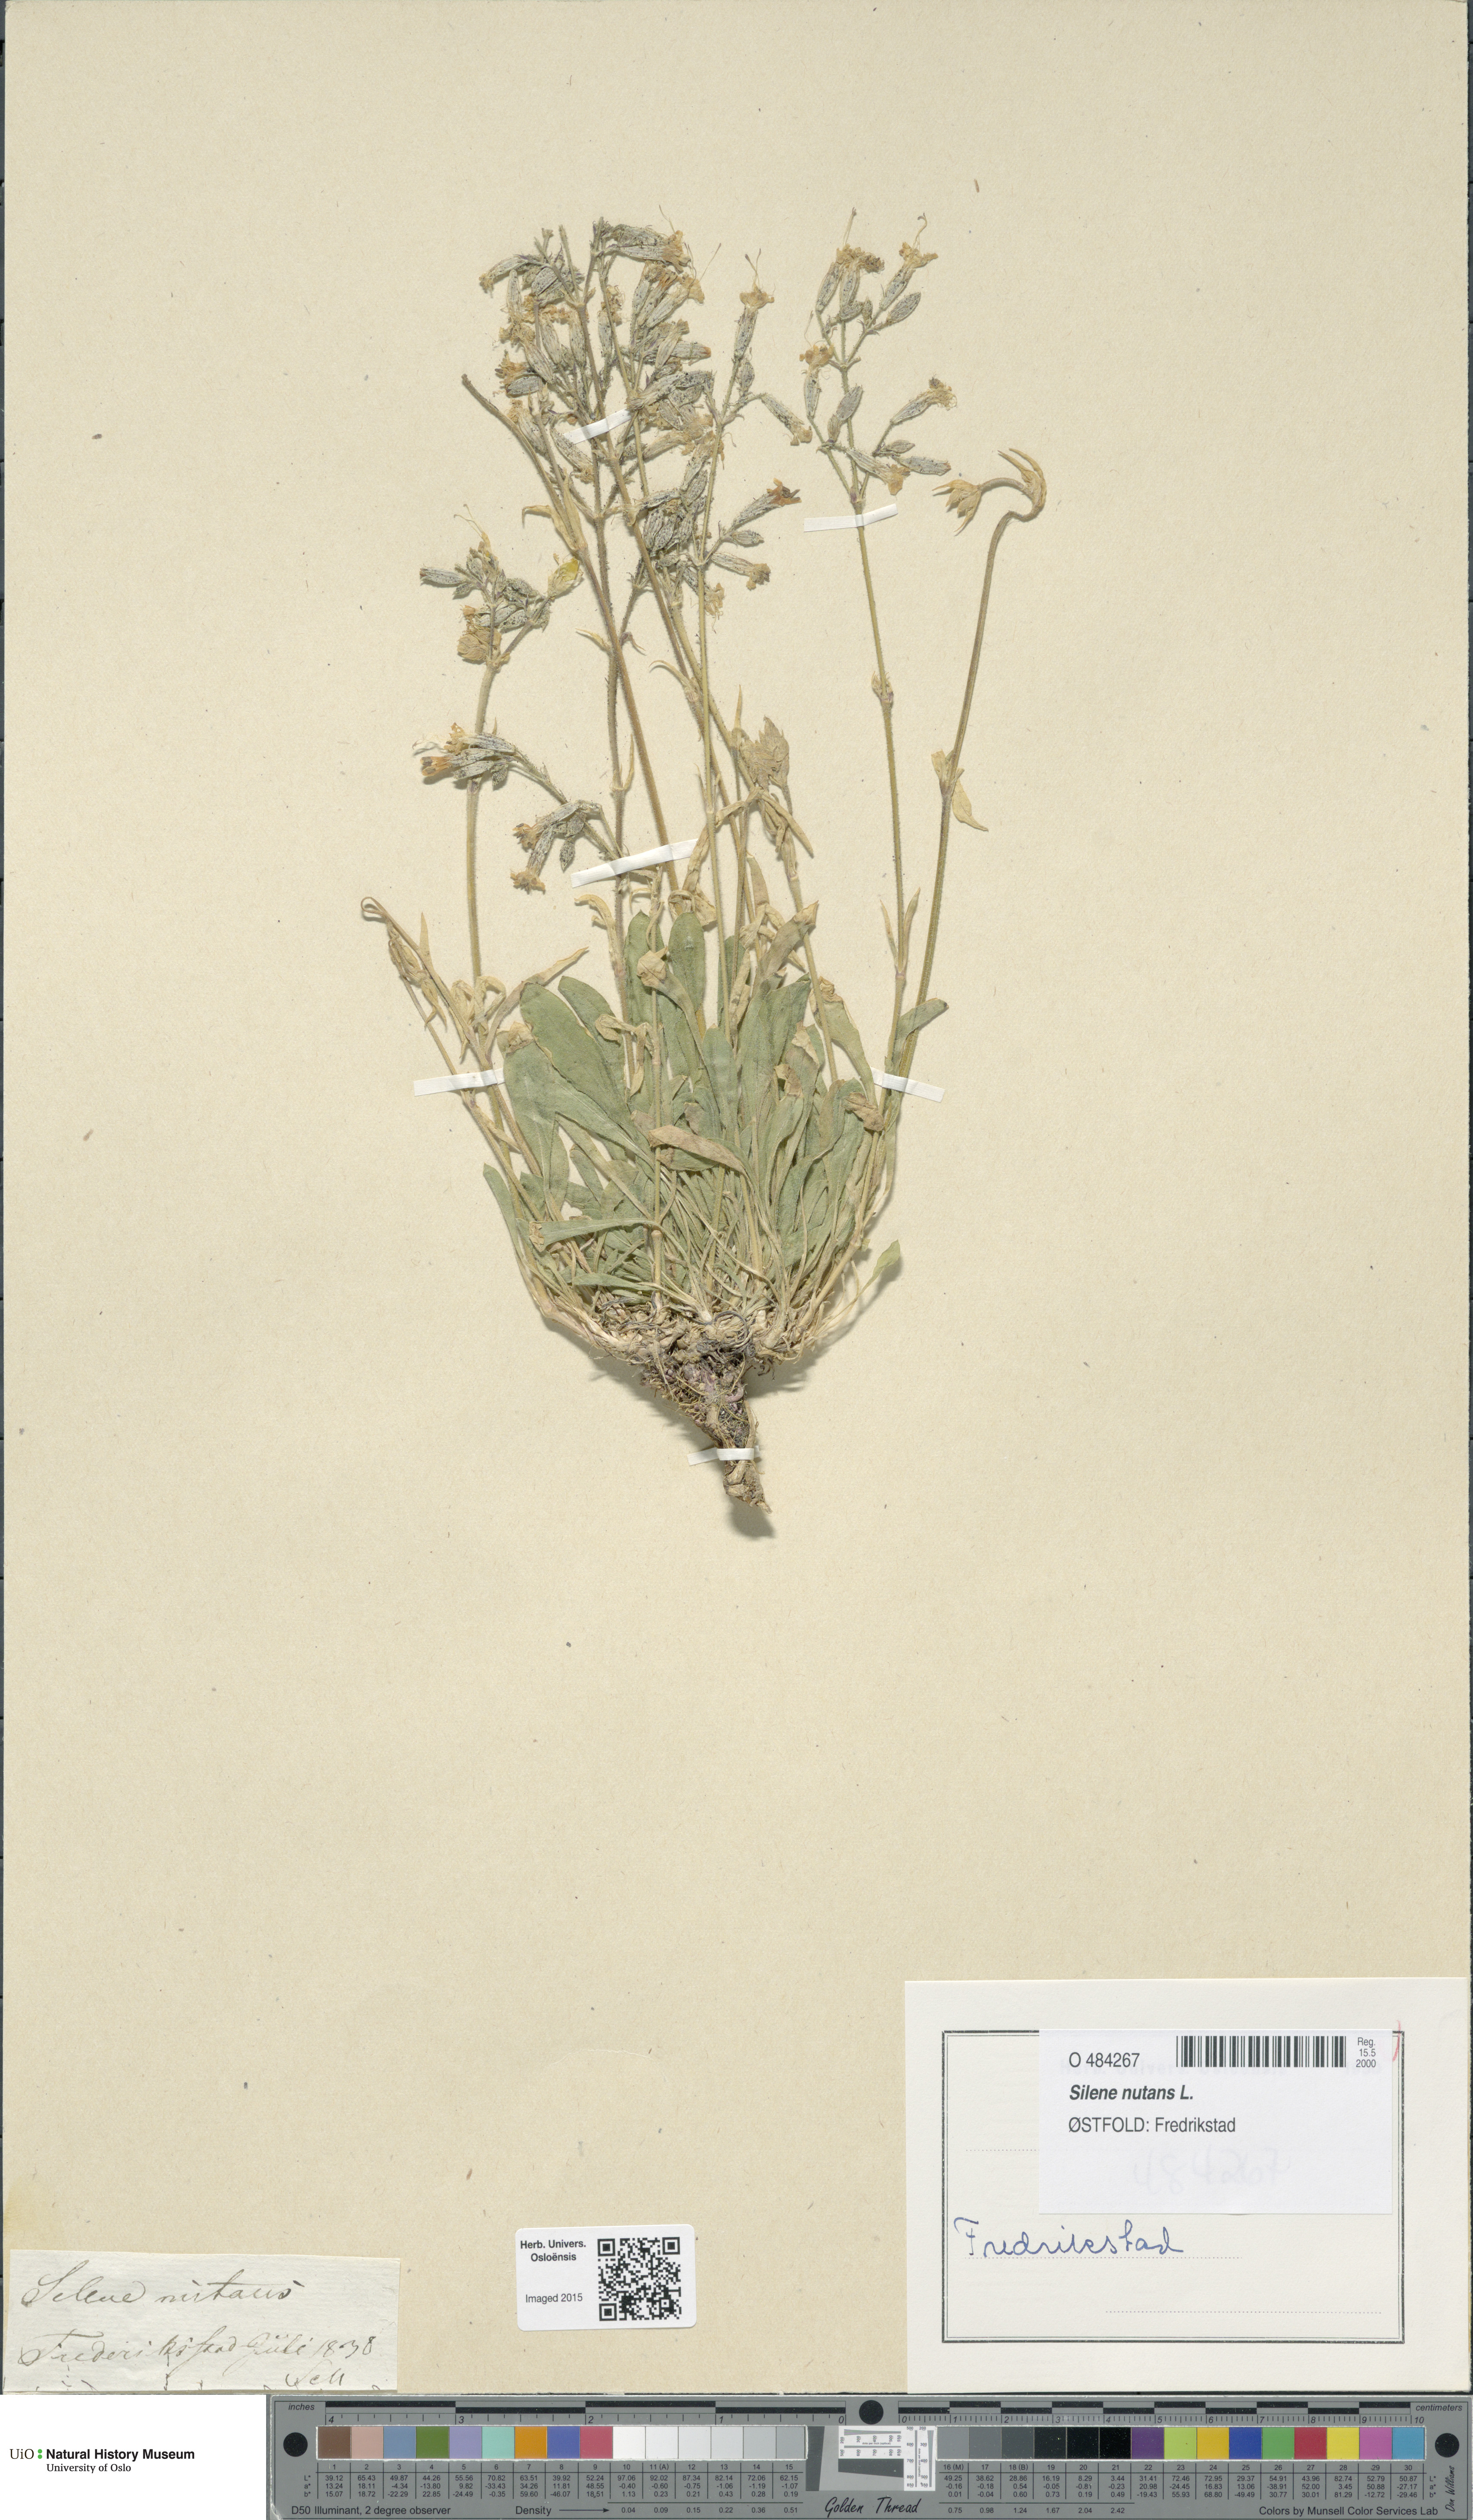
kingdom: Plantae
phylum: Tracheophyta
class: Magnoliopsida
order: Caryophyllales
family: Caryophyllaceae
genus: Silene
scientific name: Silene nutans
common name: Nottingham catchfly
